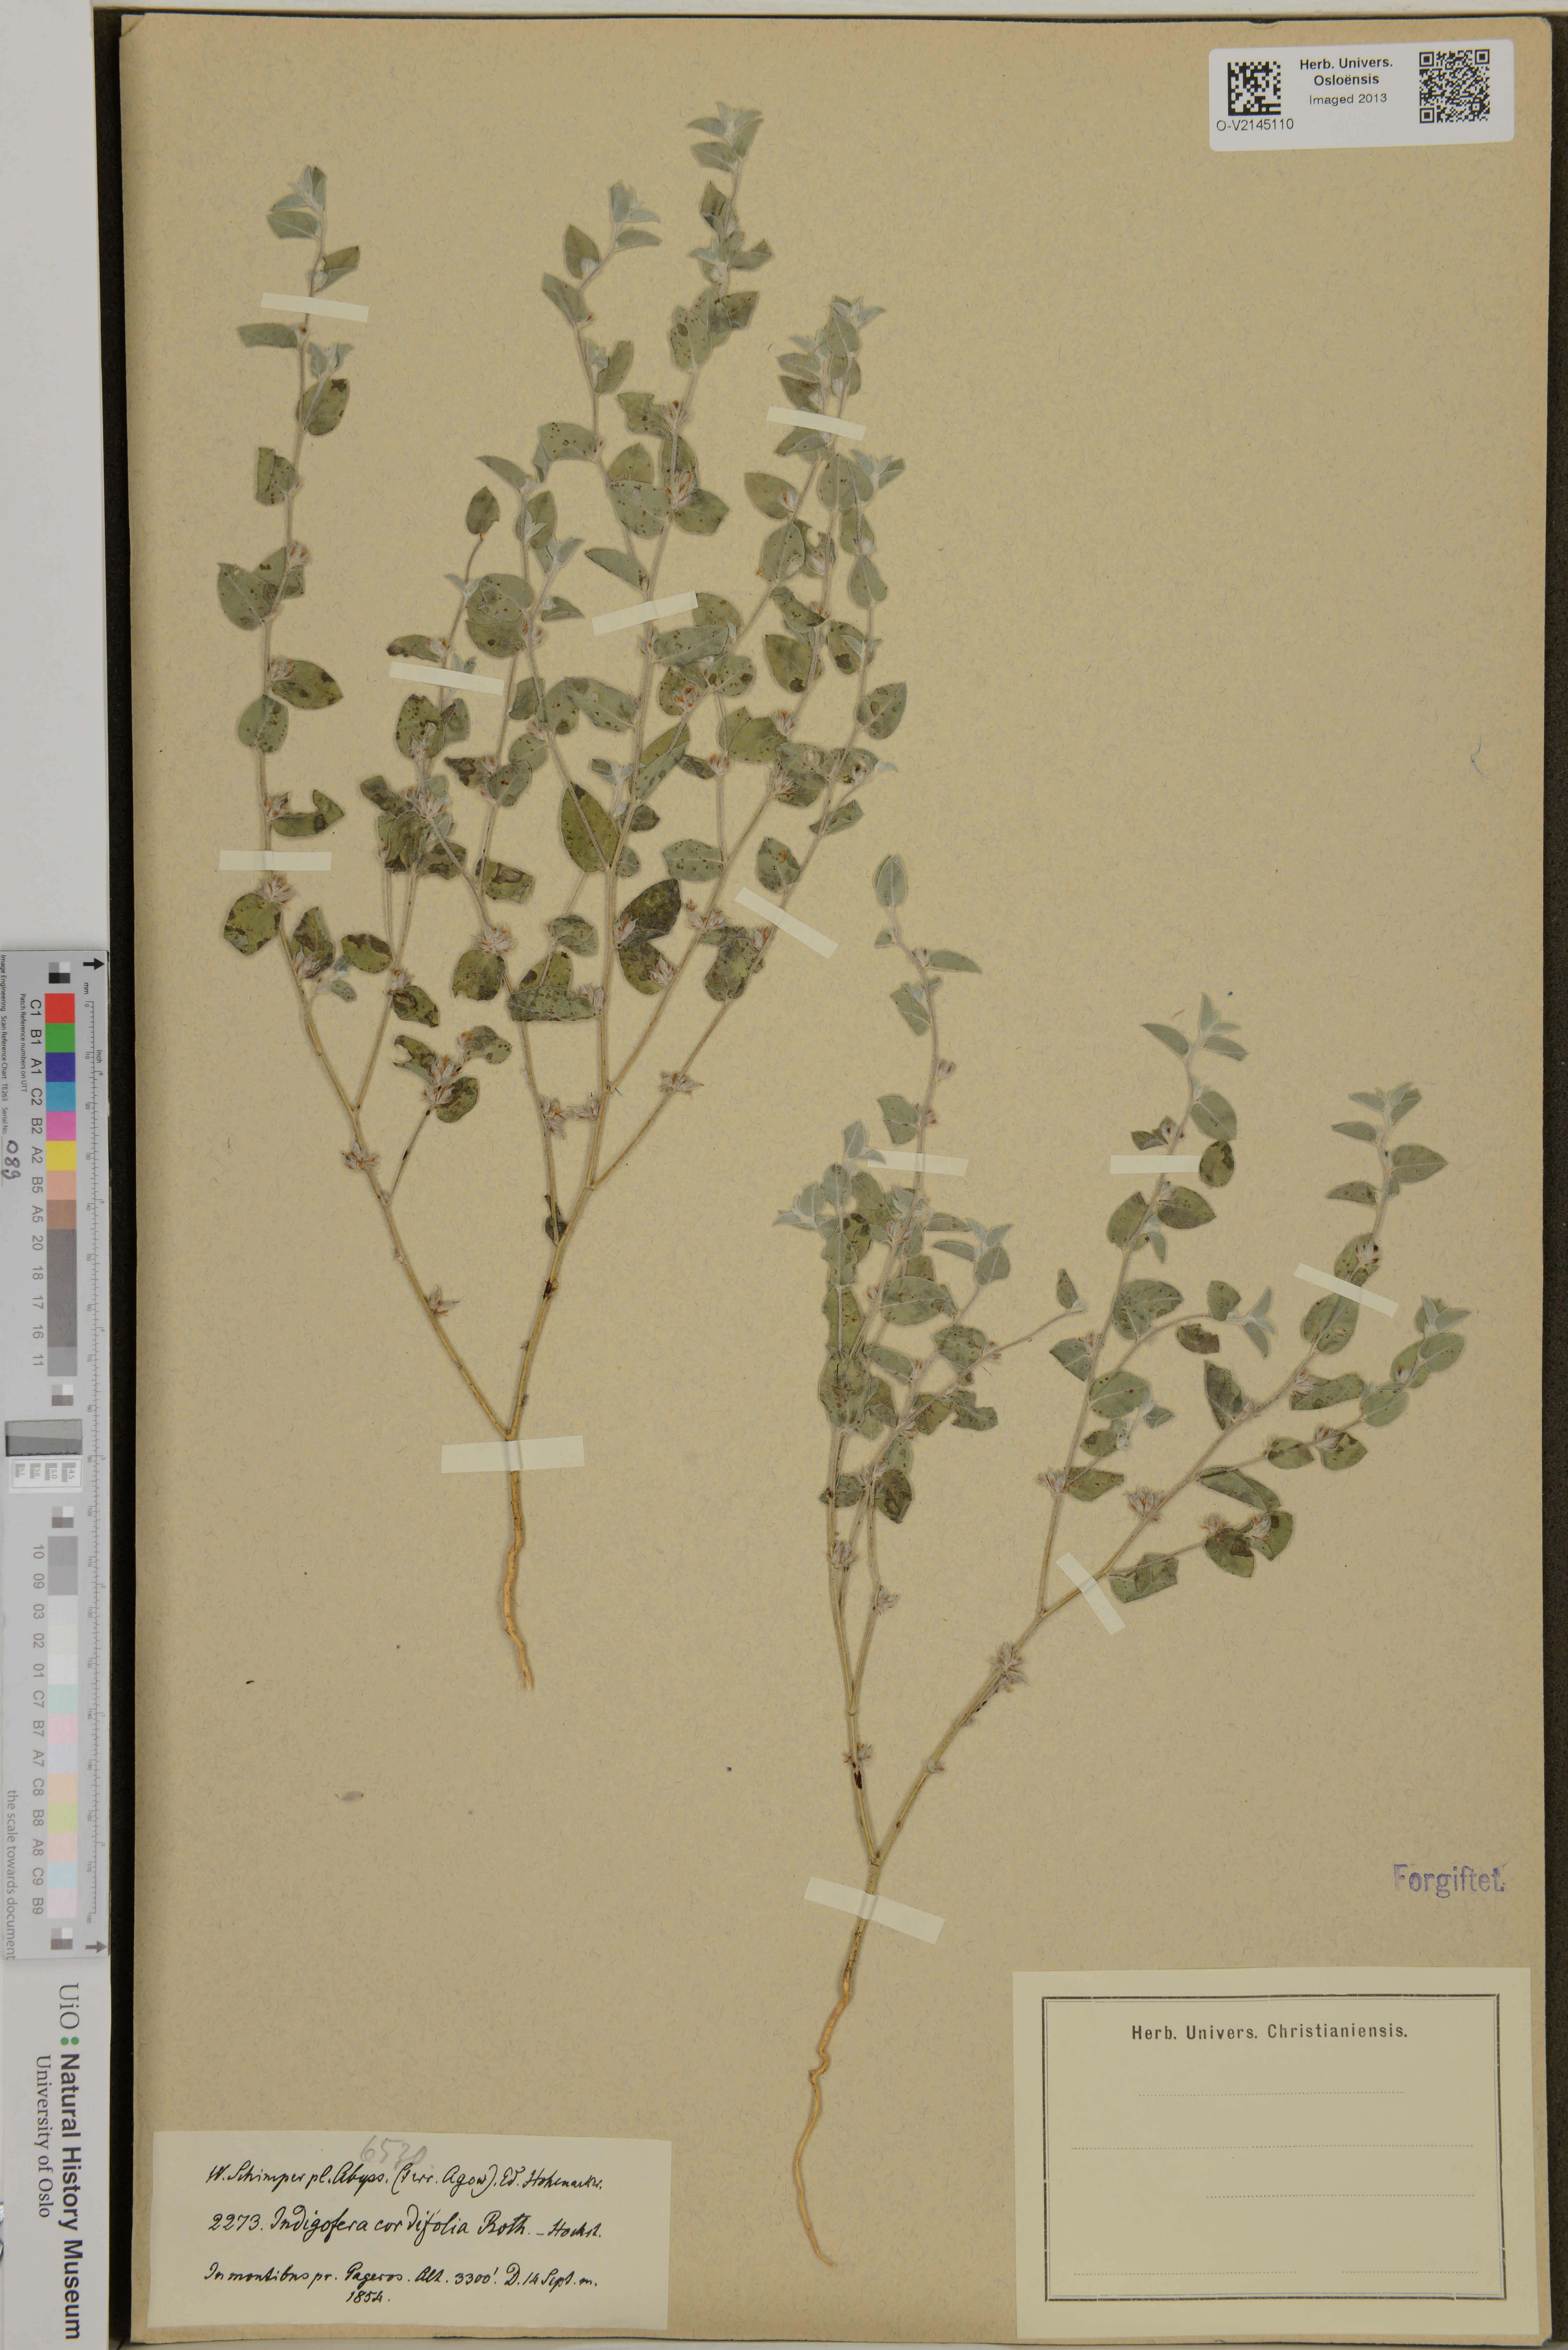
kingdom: Plantae
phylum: Tracheophyta
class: Magnoliopsida
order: Fabales
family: Fabaceae
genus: Indigofera
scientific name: Indigofera cordifolia
